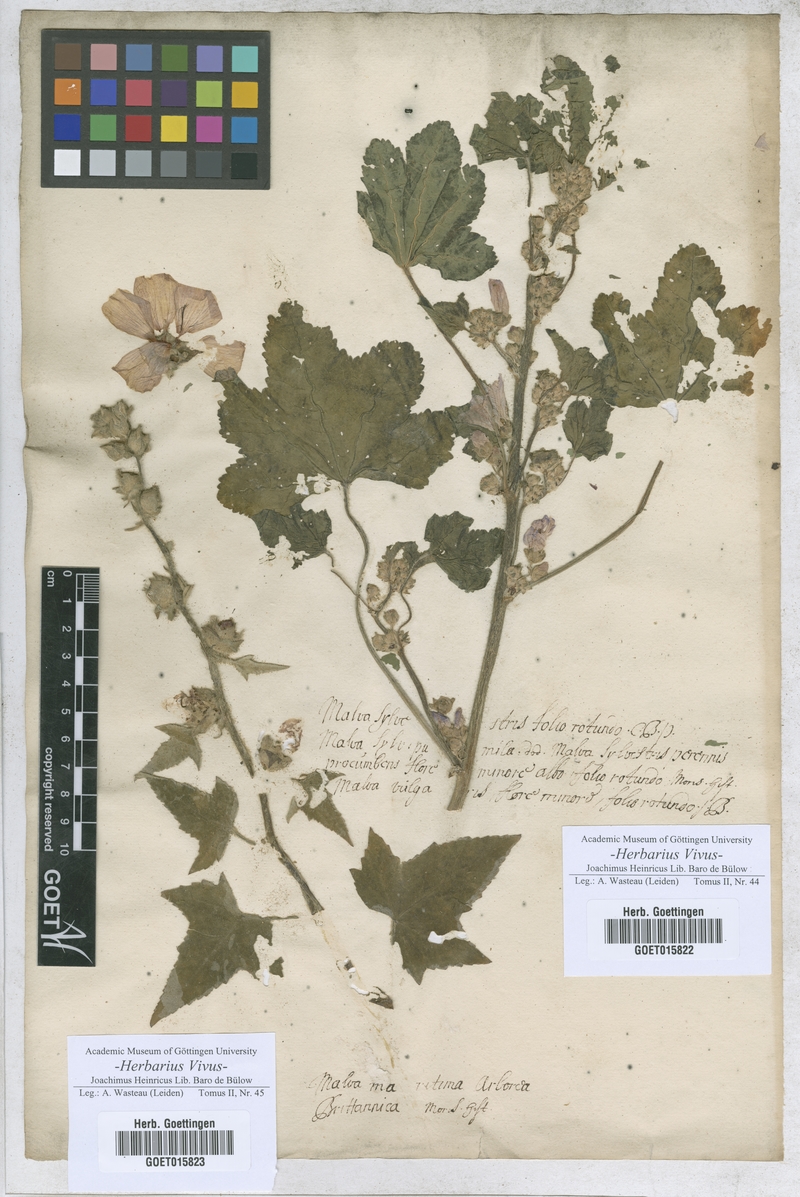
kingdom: Plantae
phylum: Tracheophyta
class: Magnoliopsida
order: Malvales
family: Malvaceae
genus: Malva
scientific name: Malva pusilla
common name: Small mallow
